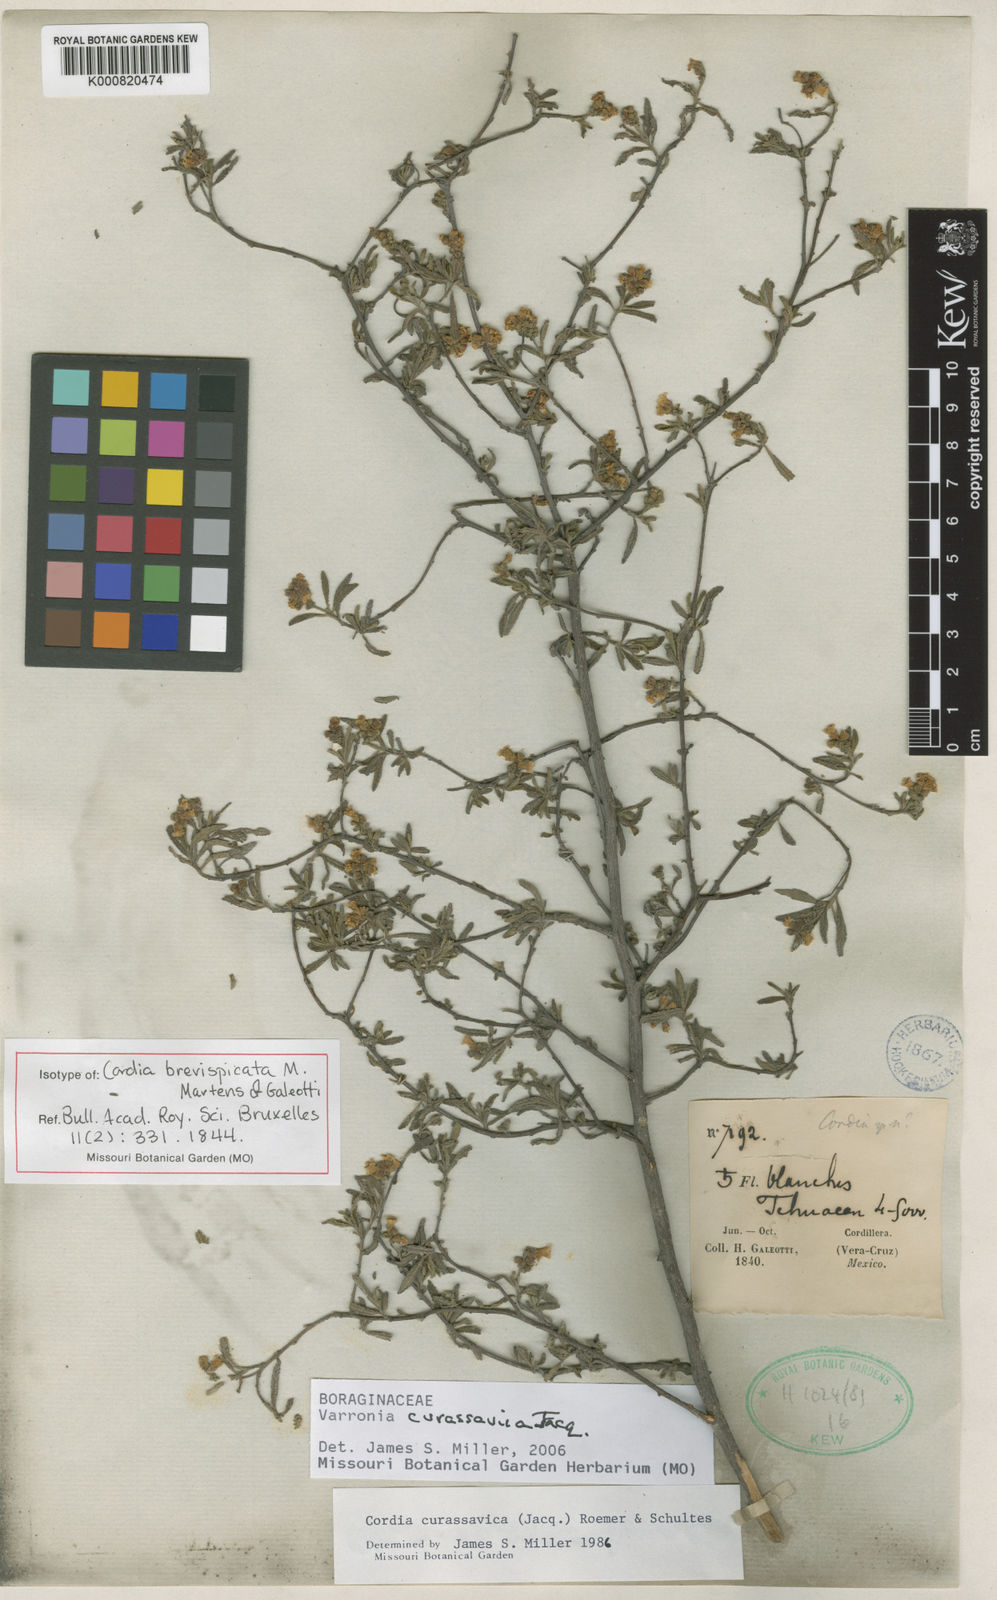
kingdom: Plantae
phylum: Tracheophyta
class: Magnoliopsida
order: Boraginales
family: Cordiaceae
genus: Varronia
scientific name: Varronia curassavica
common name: Black sage
